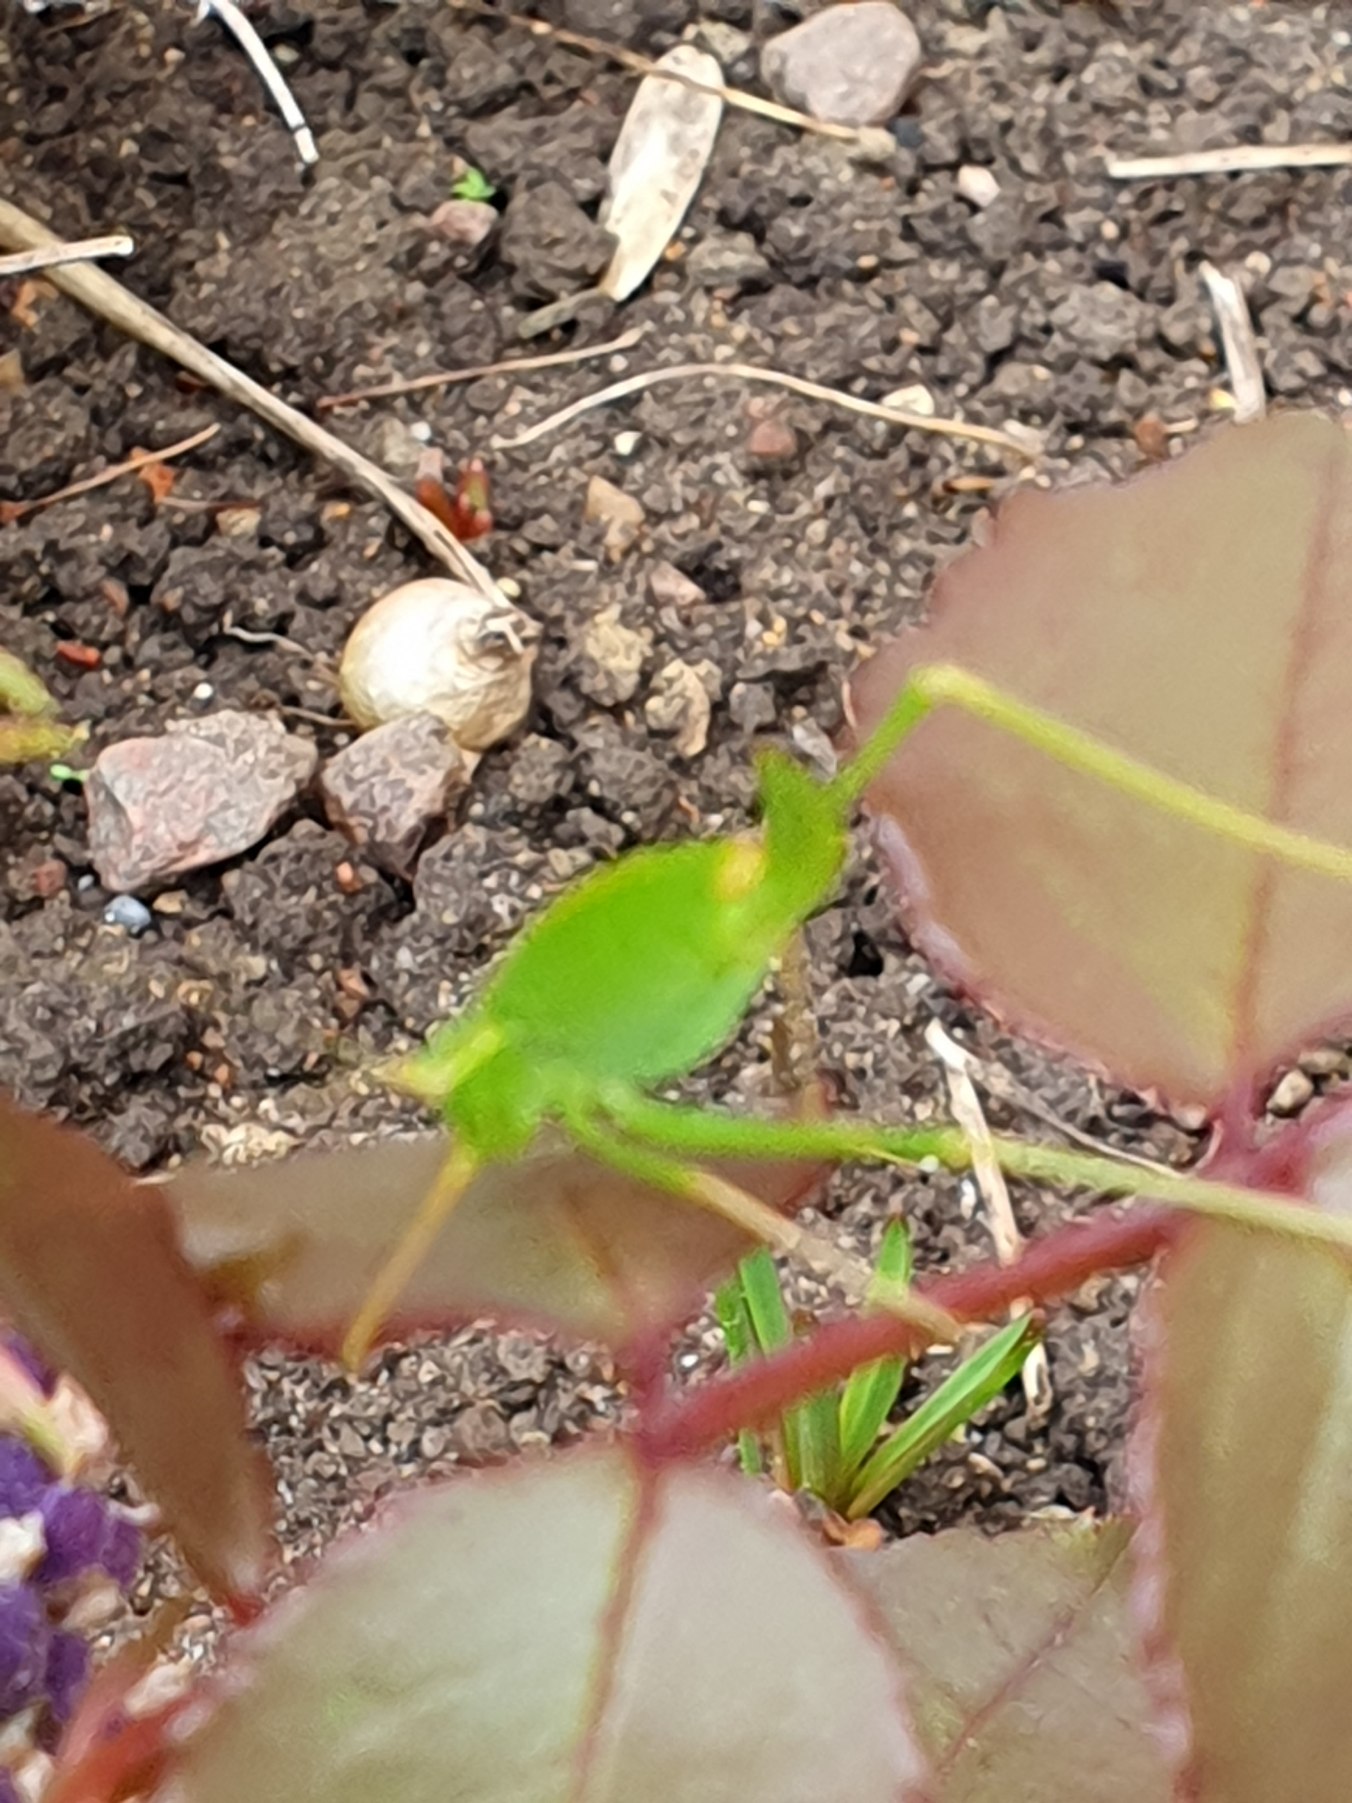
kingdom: Animalia
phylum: Arthropoda
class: Insecta
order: Orthoptera
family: Tettigoniidae
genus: Leptophyes
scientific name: Leptophyes punctatissima
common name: Krumknivgræshoppe
